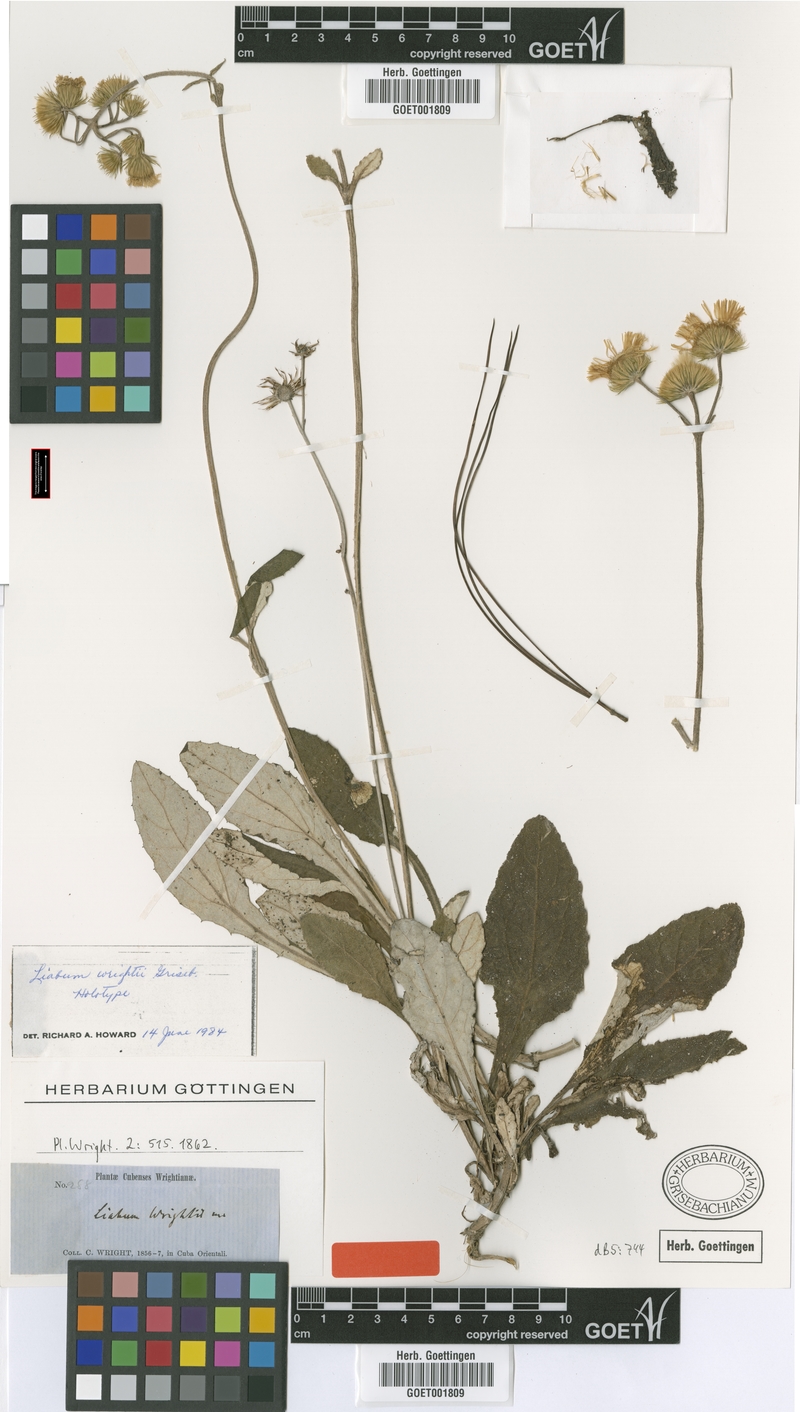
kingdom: Plantae
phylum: Tracheophyta
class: Magnoliopsida
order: Asterales
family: Asteraceae
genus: Liabum
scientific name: Liabum wrightii
